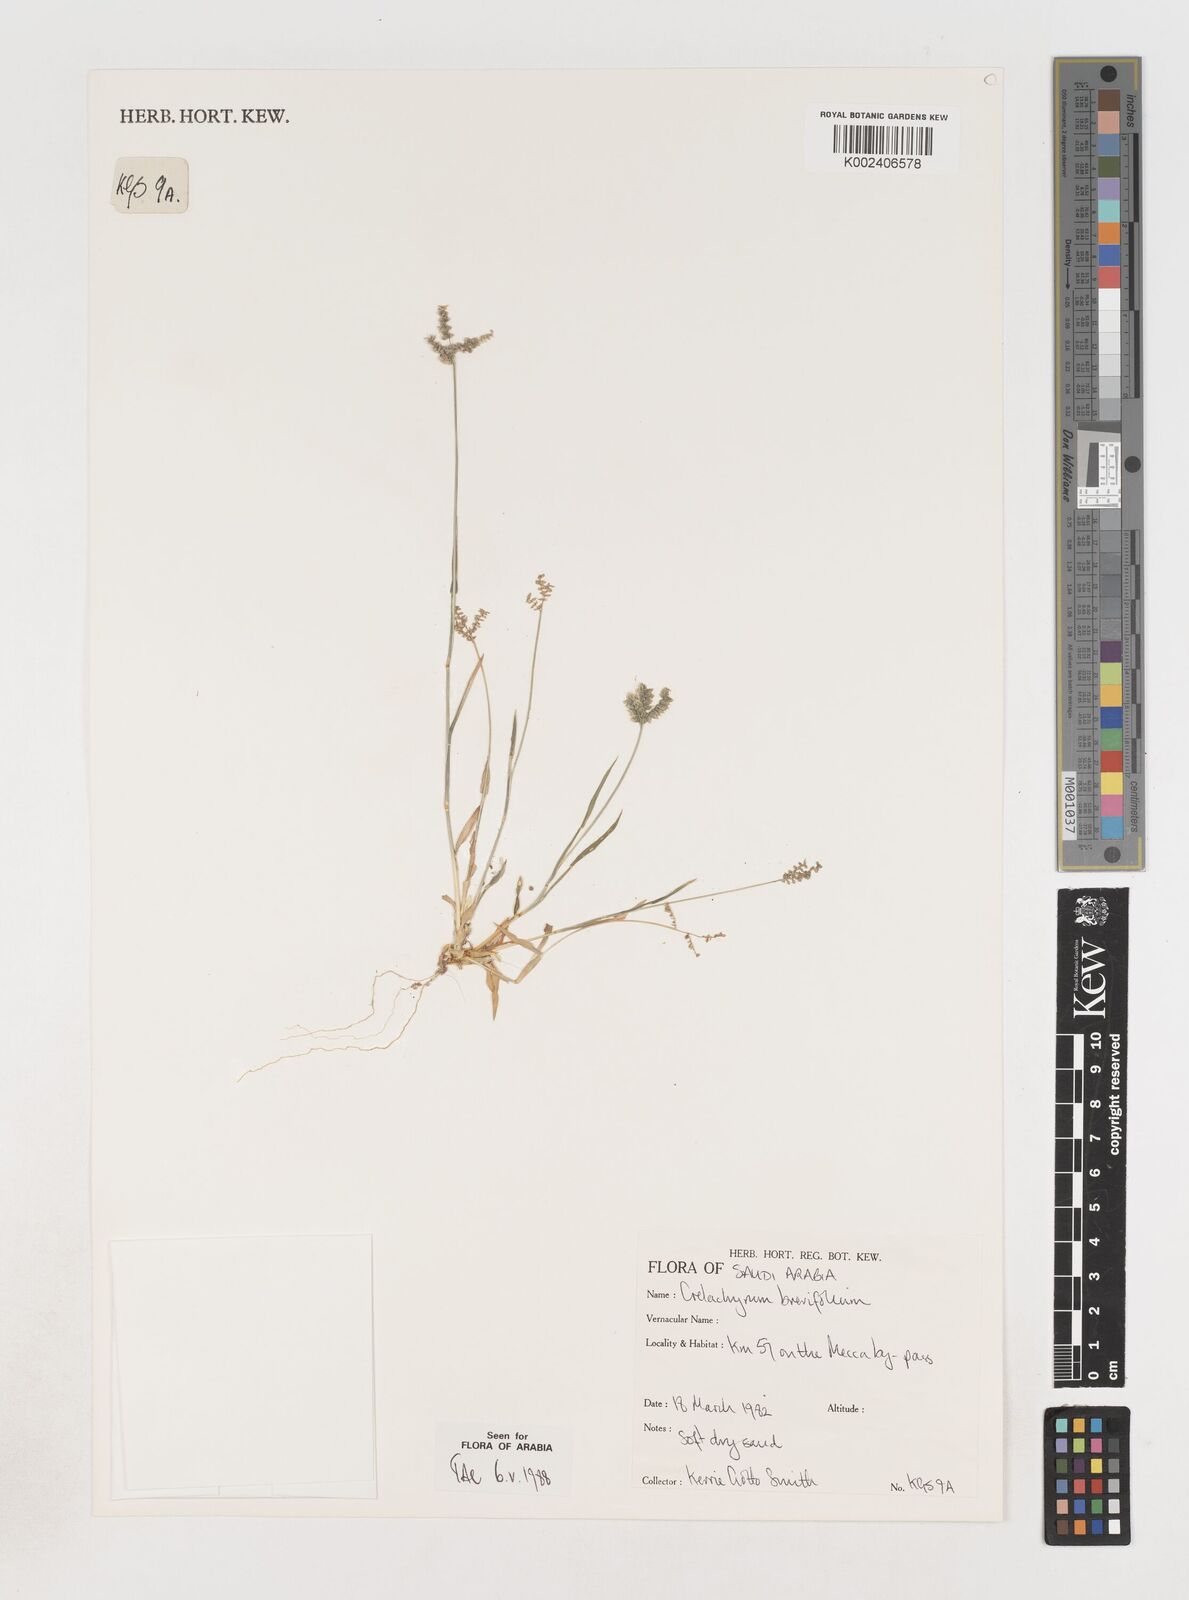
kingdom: Plantae
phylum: Tracheophyta
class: Liliopsida
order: Poales
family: Poaceae
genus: Coelachyrum
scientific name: Coelachyrum brevifolium
